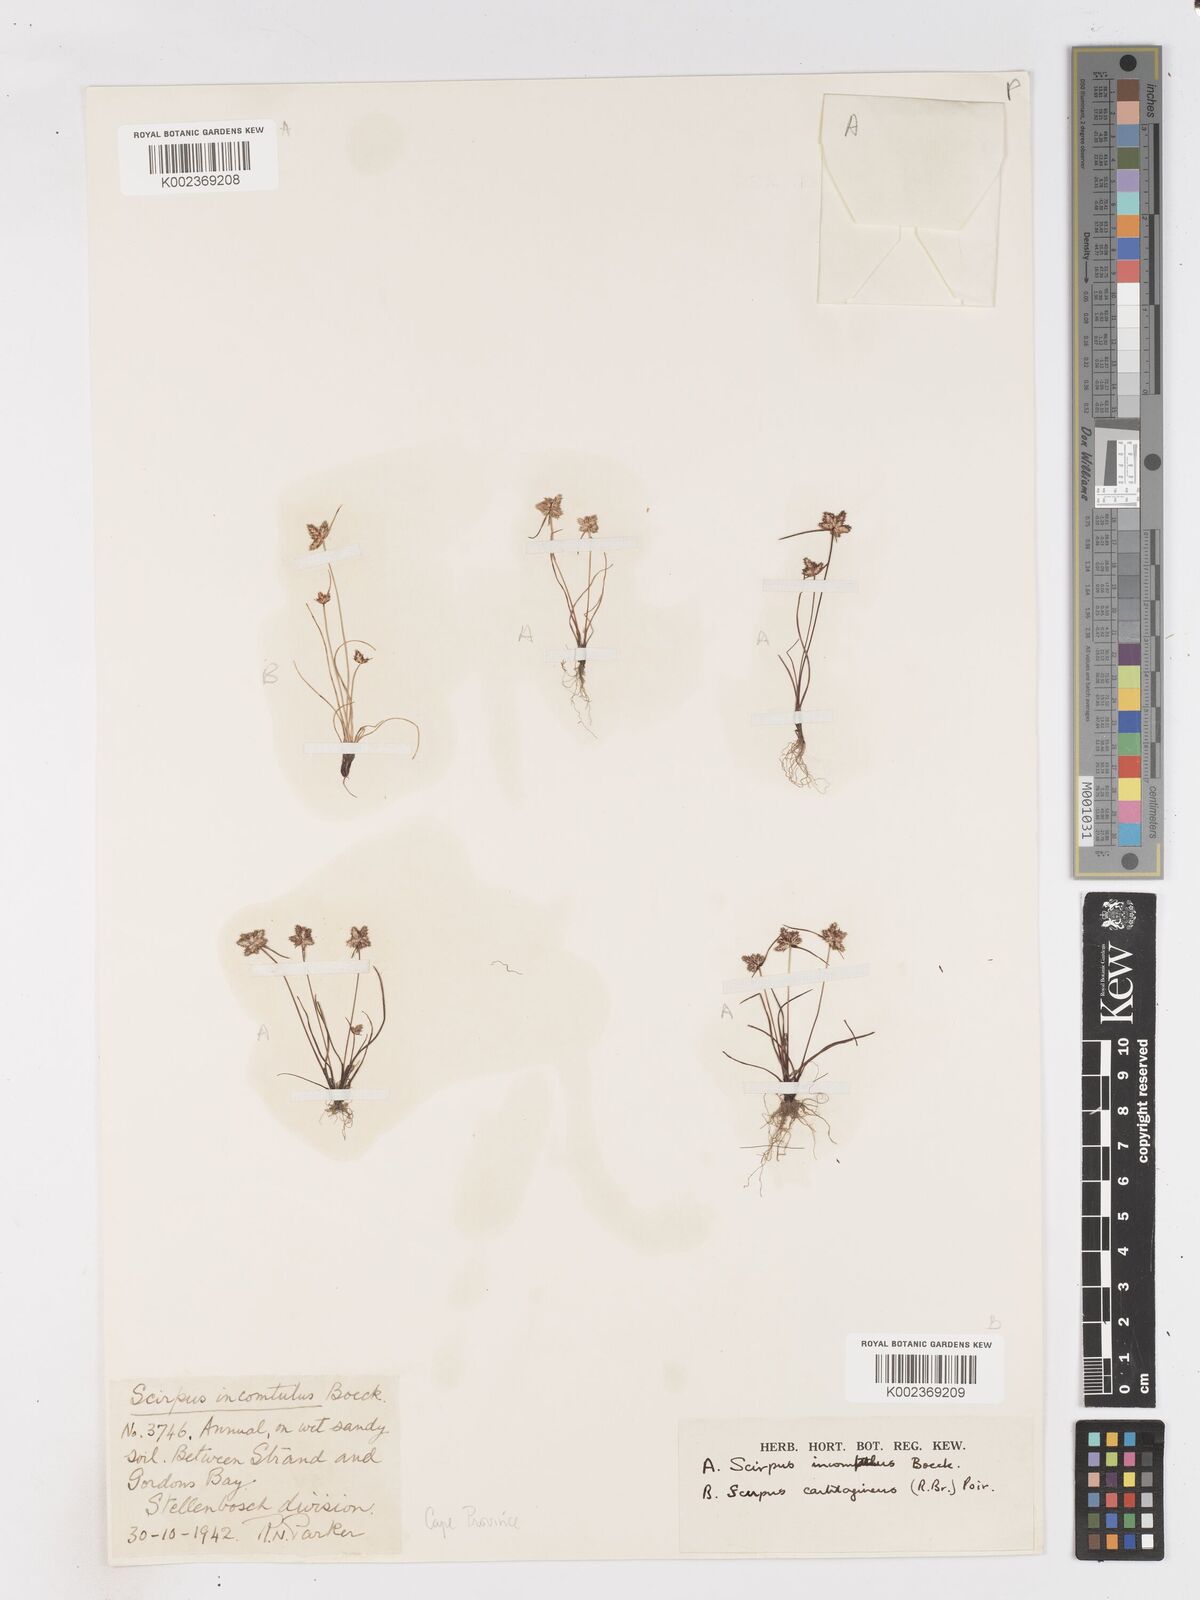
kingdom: Plantae
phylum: Tracheophyta
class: Liliopsida
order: Poales
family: Cyperaceae
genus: Ficinia
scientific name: Ficinia incomtula
